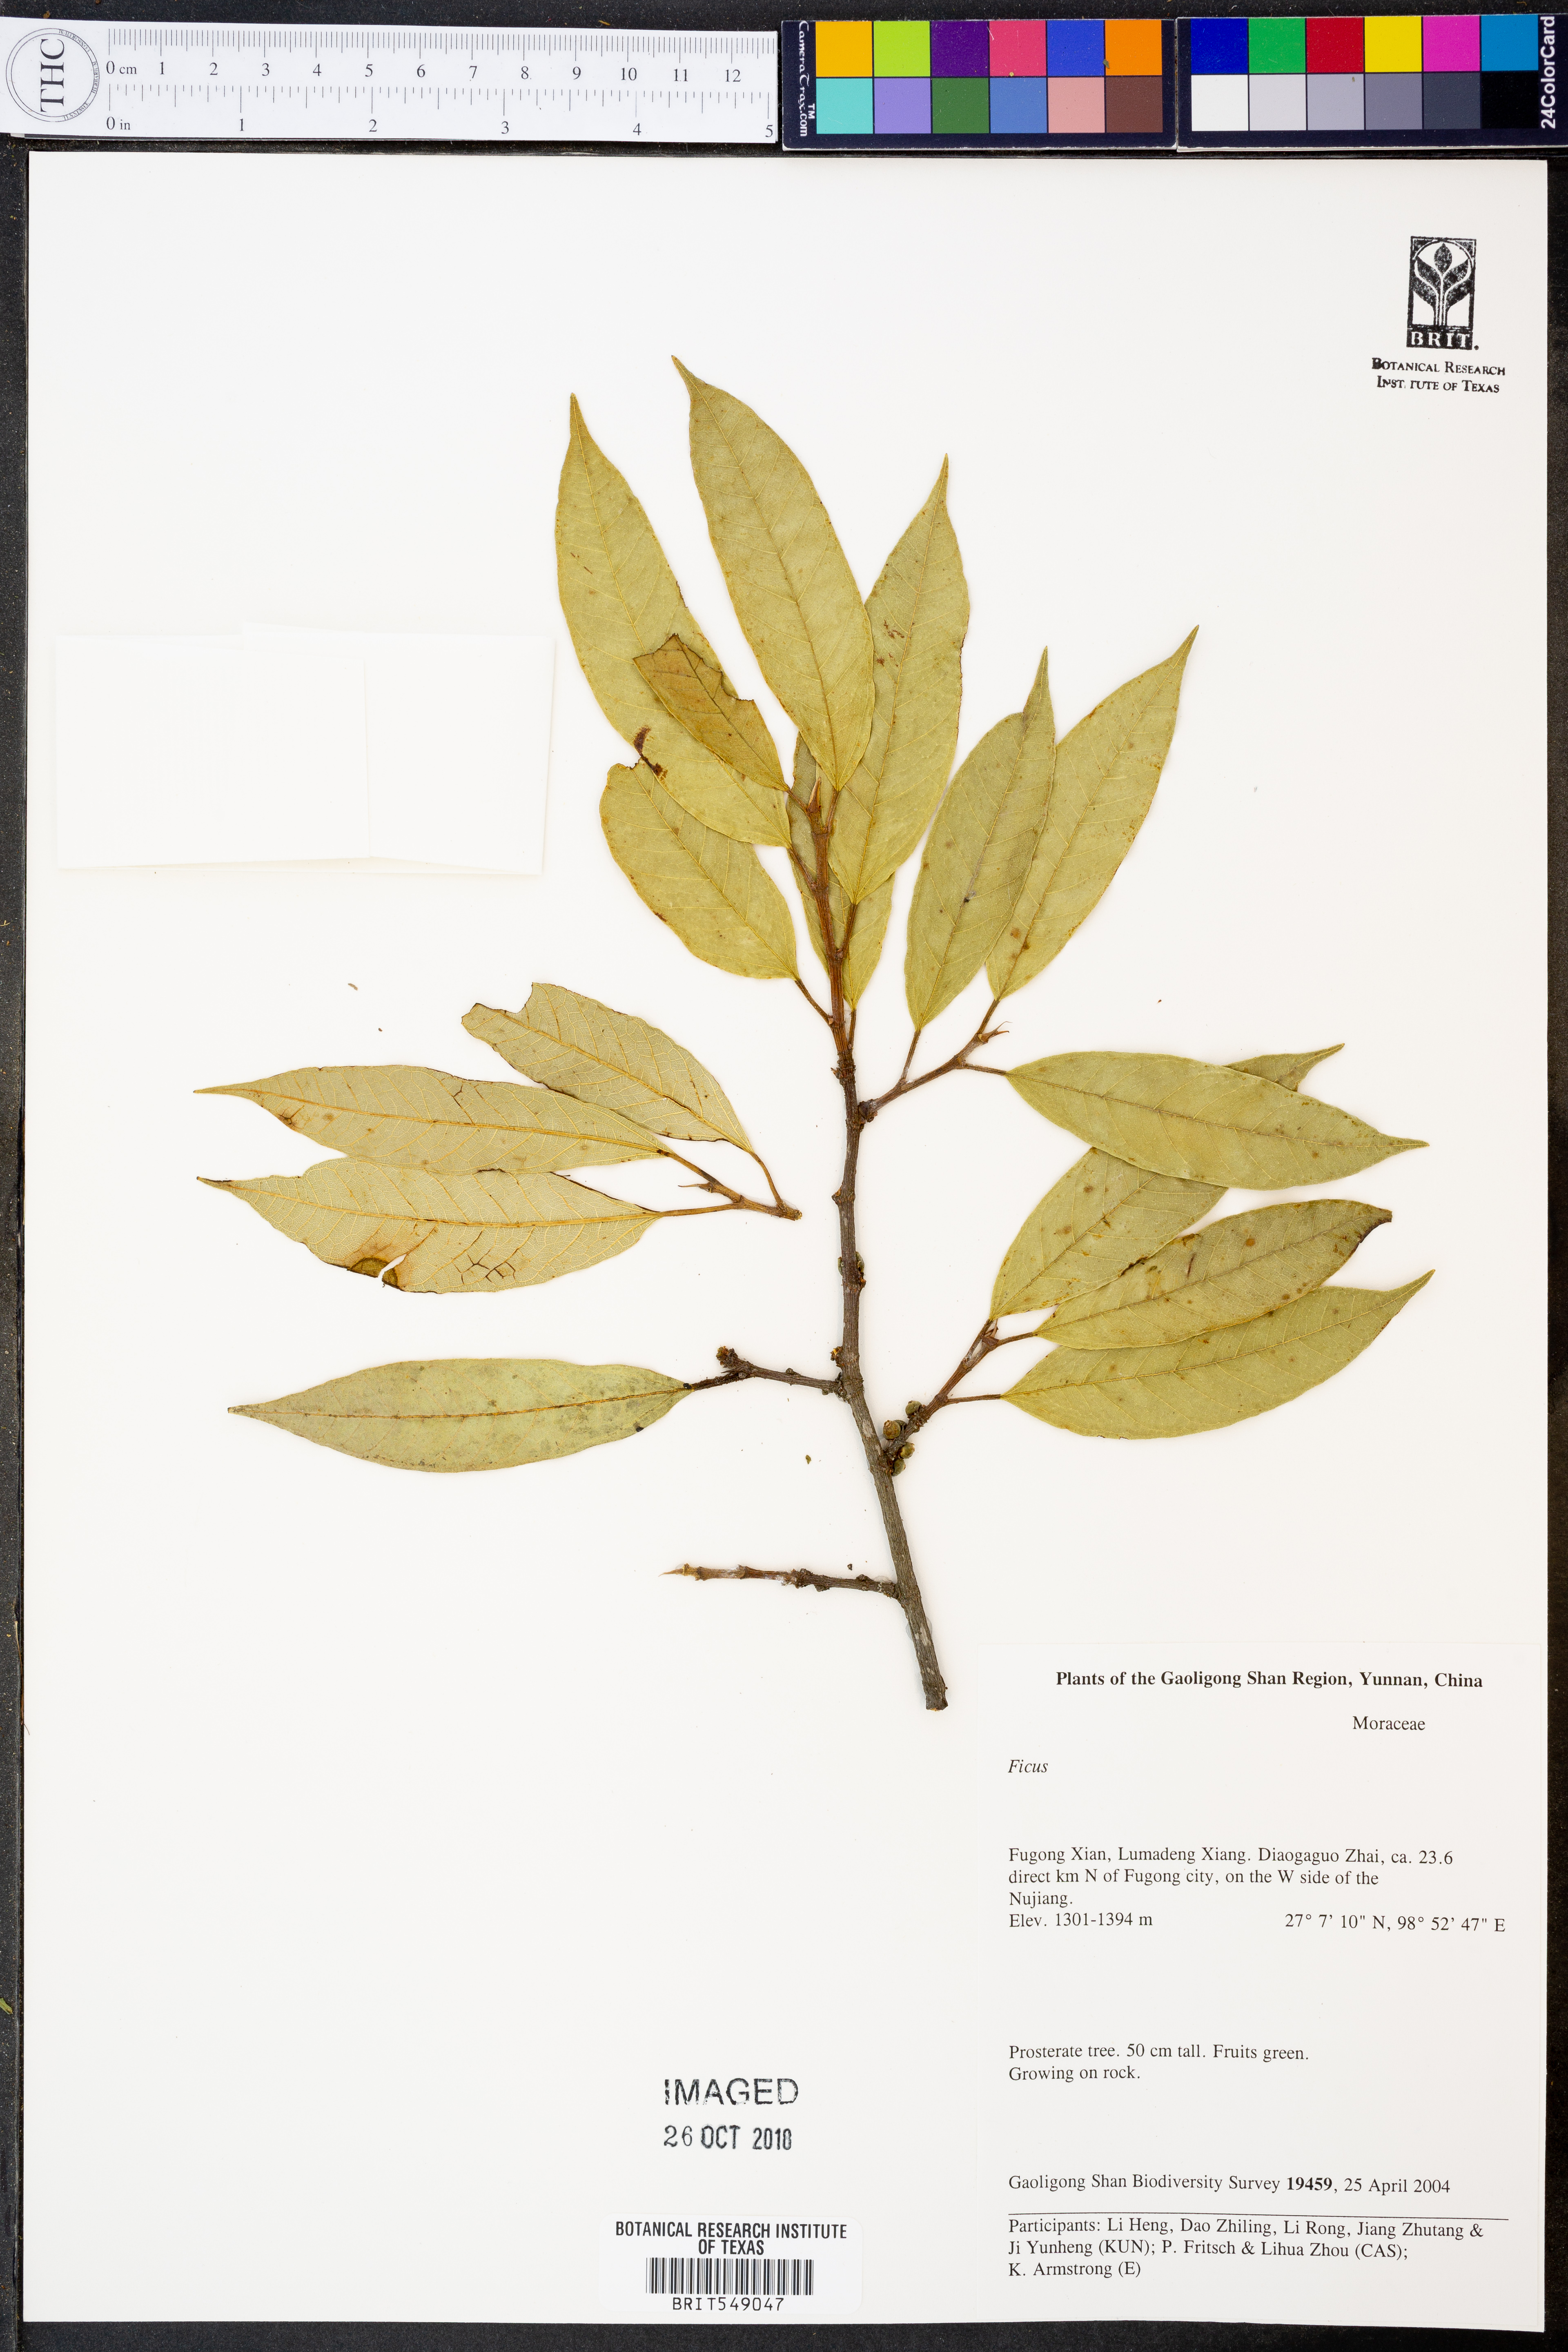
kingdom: Plantae
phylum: Tracheophyta
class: Magnoliopsida
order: Rosales
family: Moraceae
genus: Ficus
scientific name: Ficus
